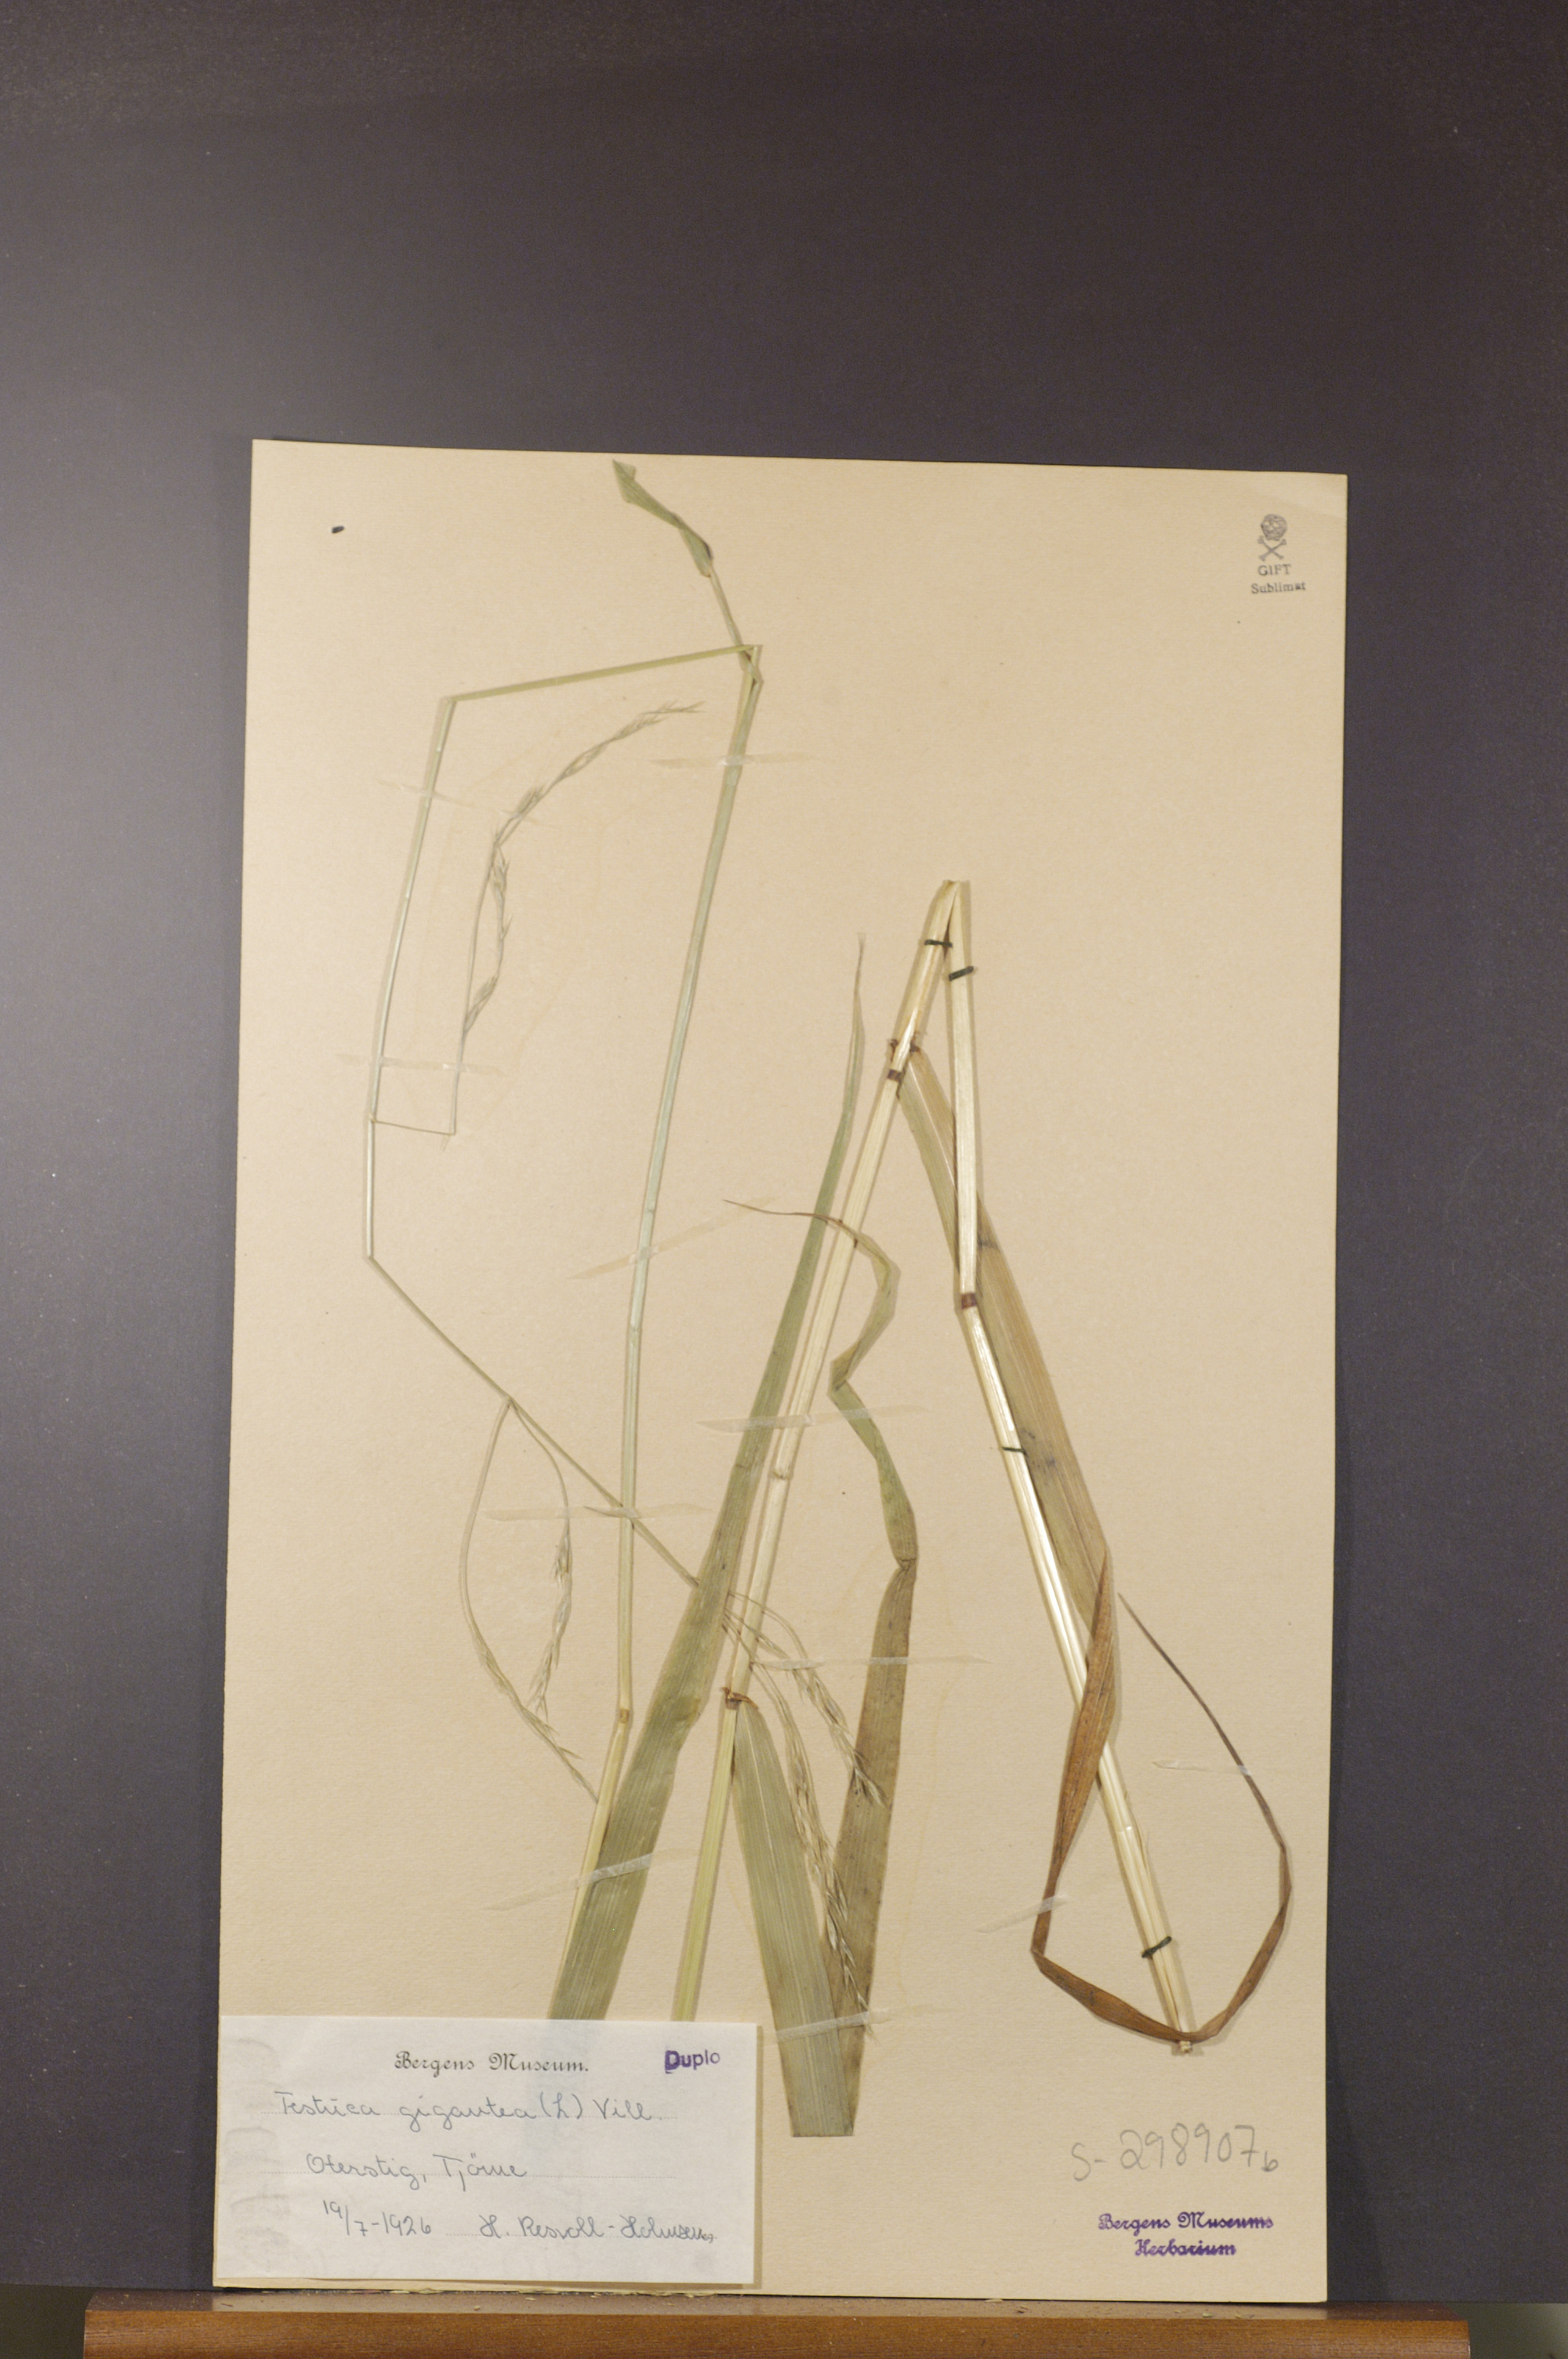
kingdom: Plantae
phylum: Tracheophyta
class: Liliopsida
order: Poales
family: Poaceae
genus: Lolium
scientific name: Lolium giganteum
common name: Giant fescue
